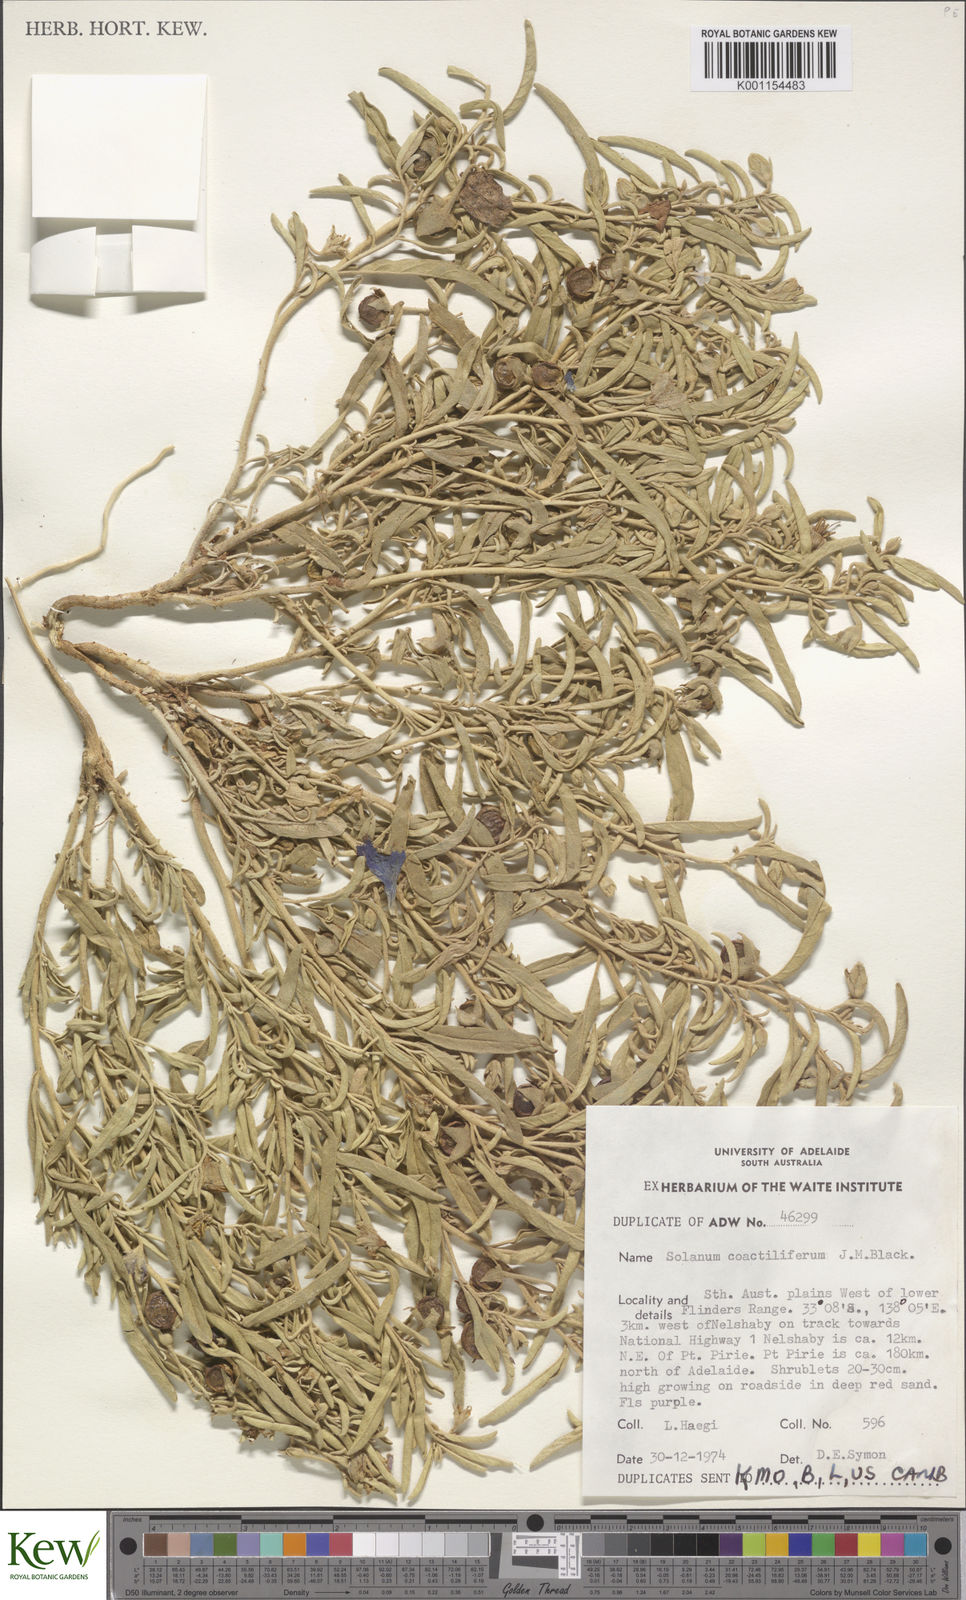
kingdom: Plantae
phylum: Tracheophyta
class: Magnoliopsida
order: Solanales
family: Solanaceae
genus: Solanum
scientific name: Solanum coactiliferum
